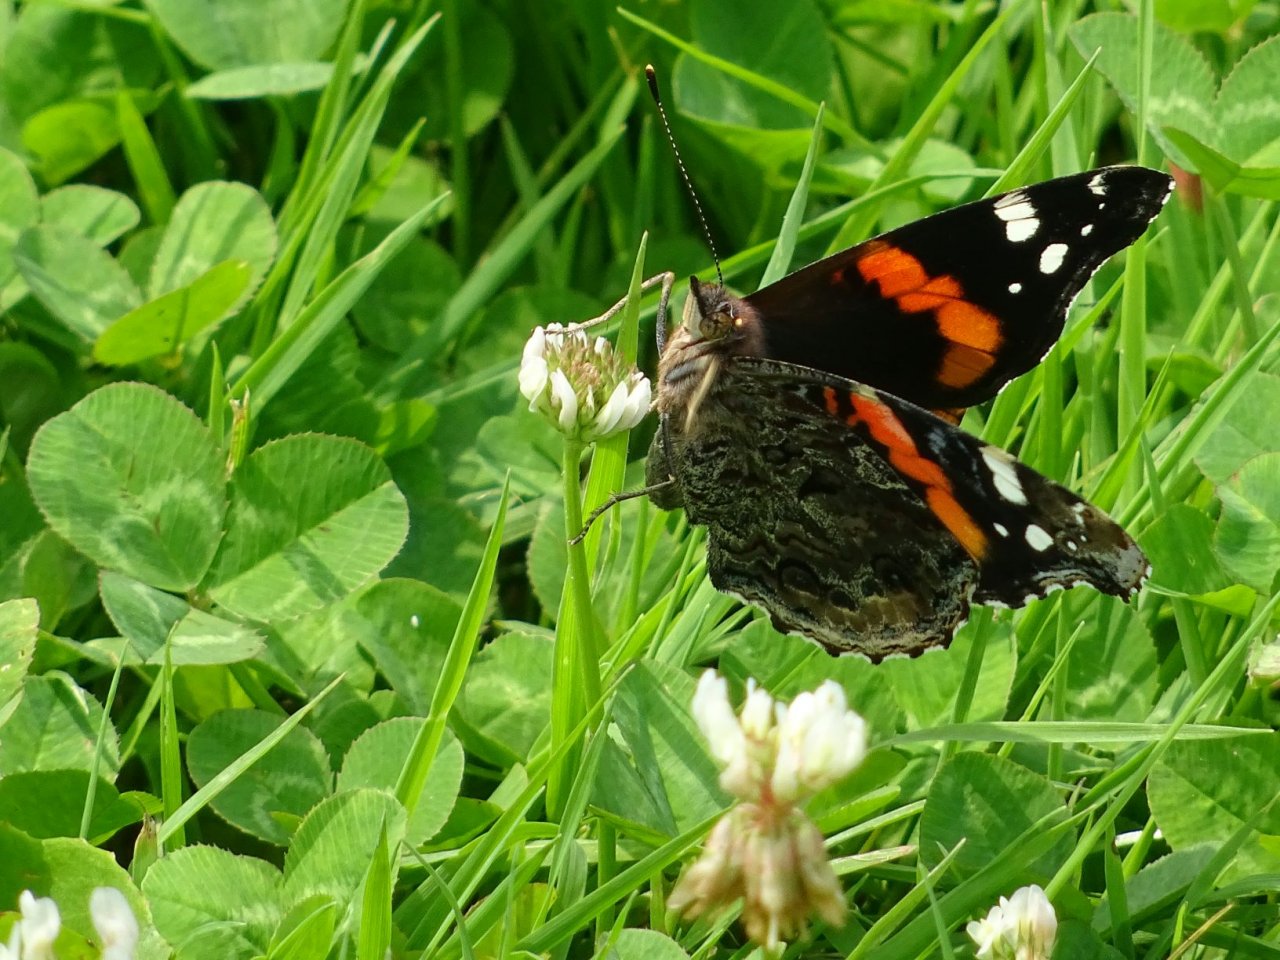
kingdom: Animalia
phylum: Arthropoda
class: Insecta
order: Lepidoptera
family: Nymphalidae
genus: Vanessa
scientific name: Vanessa atalanta
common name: Red Admiral
